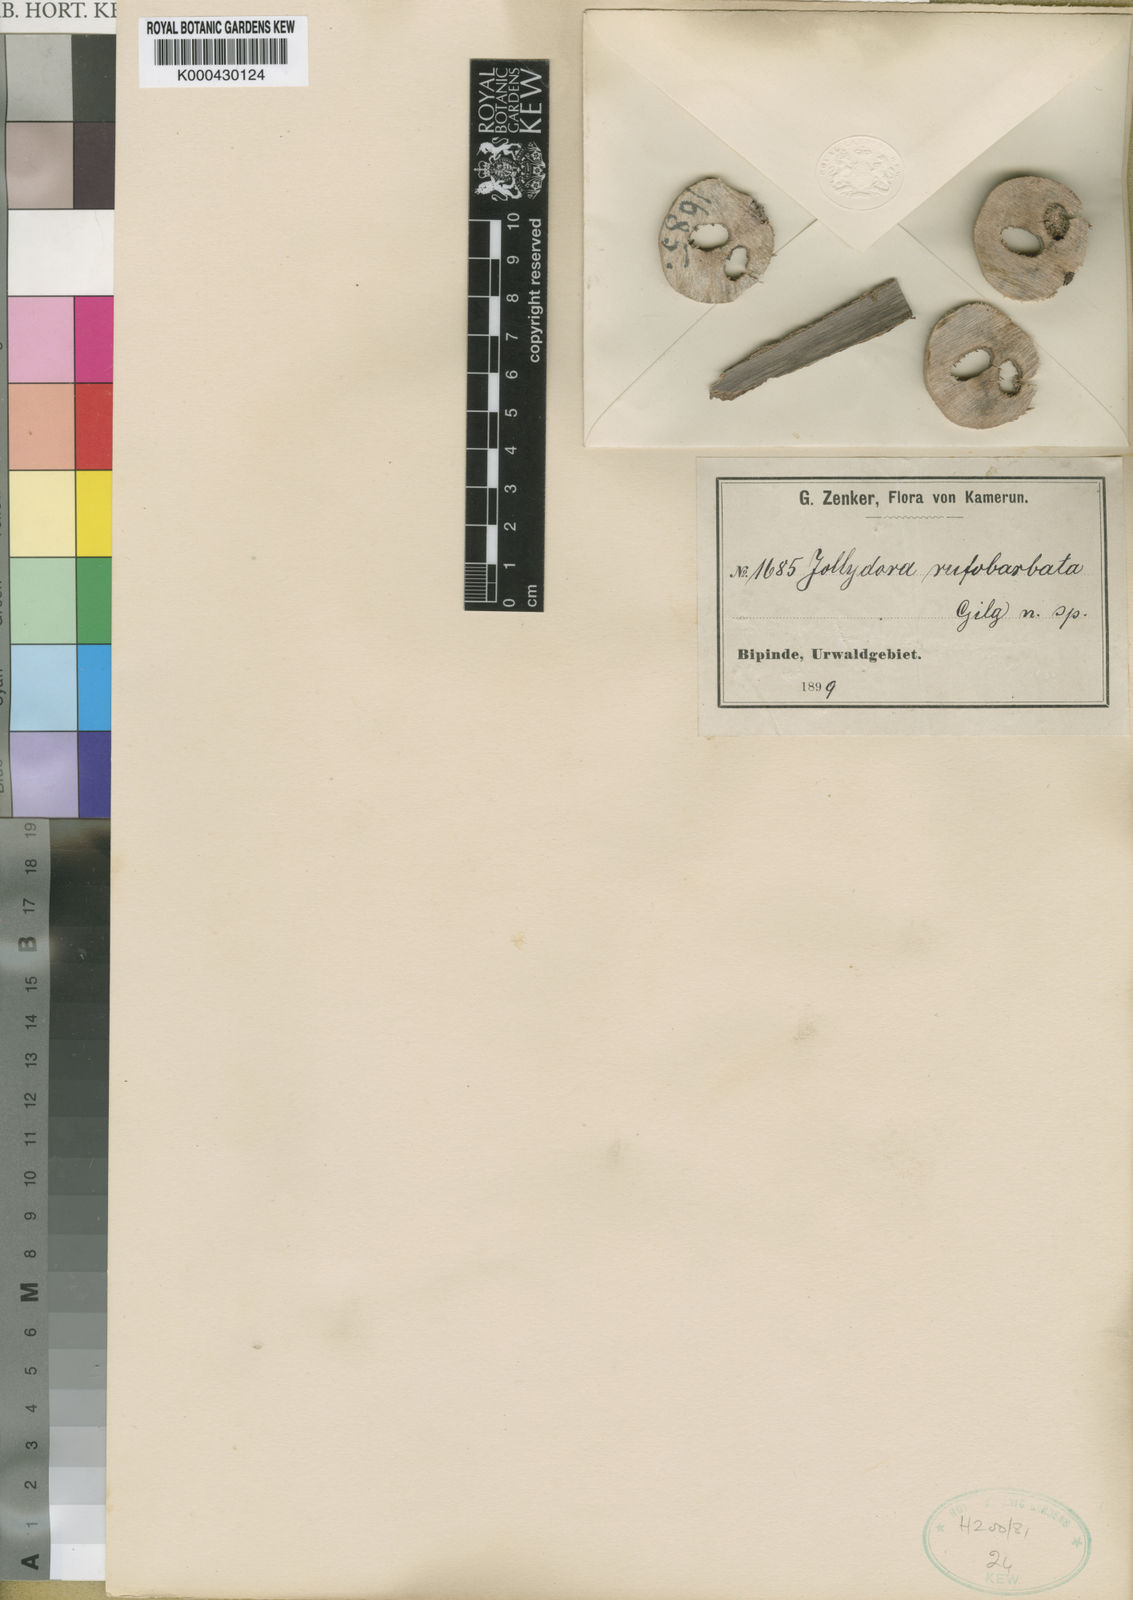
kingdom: Plantae
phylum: Tracheophyta
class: Magnoliopsida
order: Oxalidales
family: Connaraceae
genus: Jollydora
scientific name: Jollydora duparquetiana
